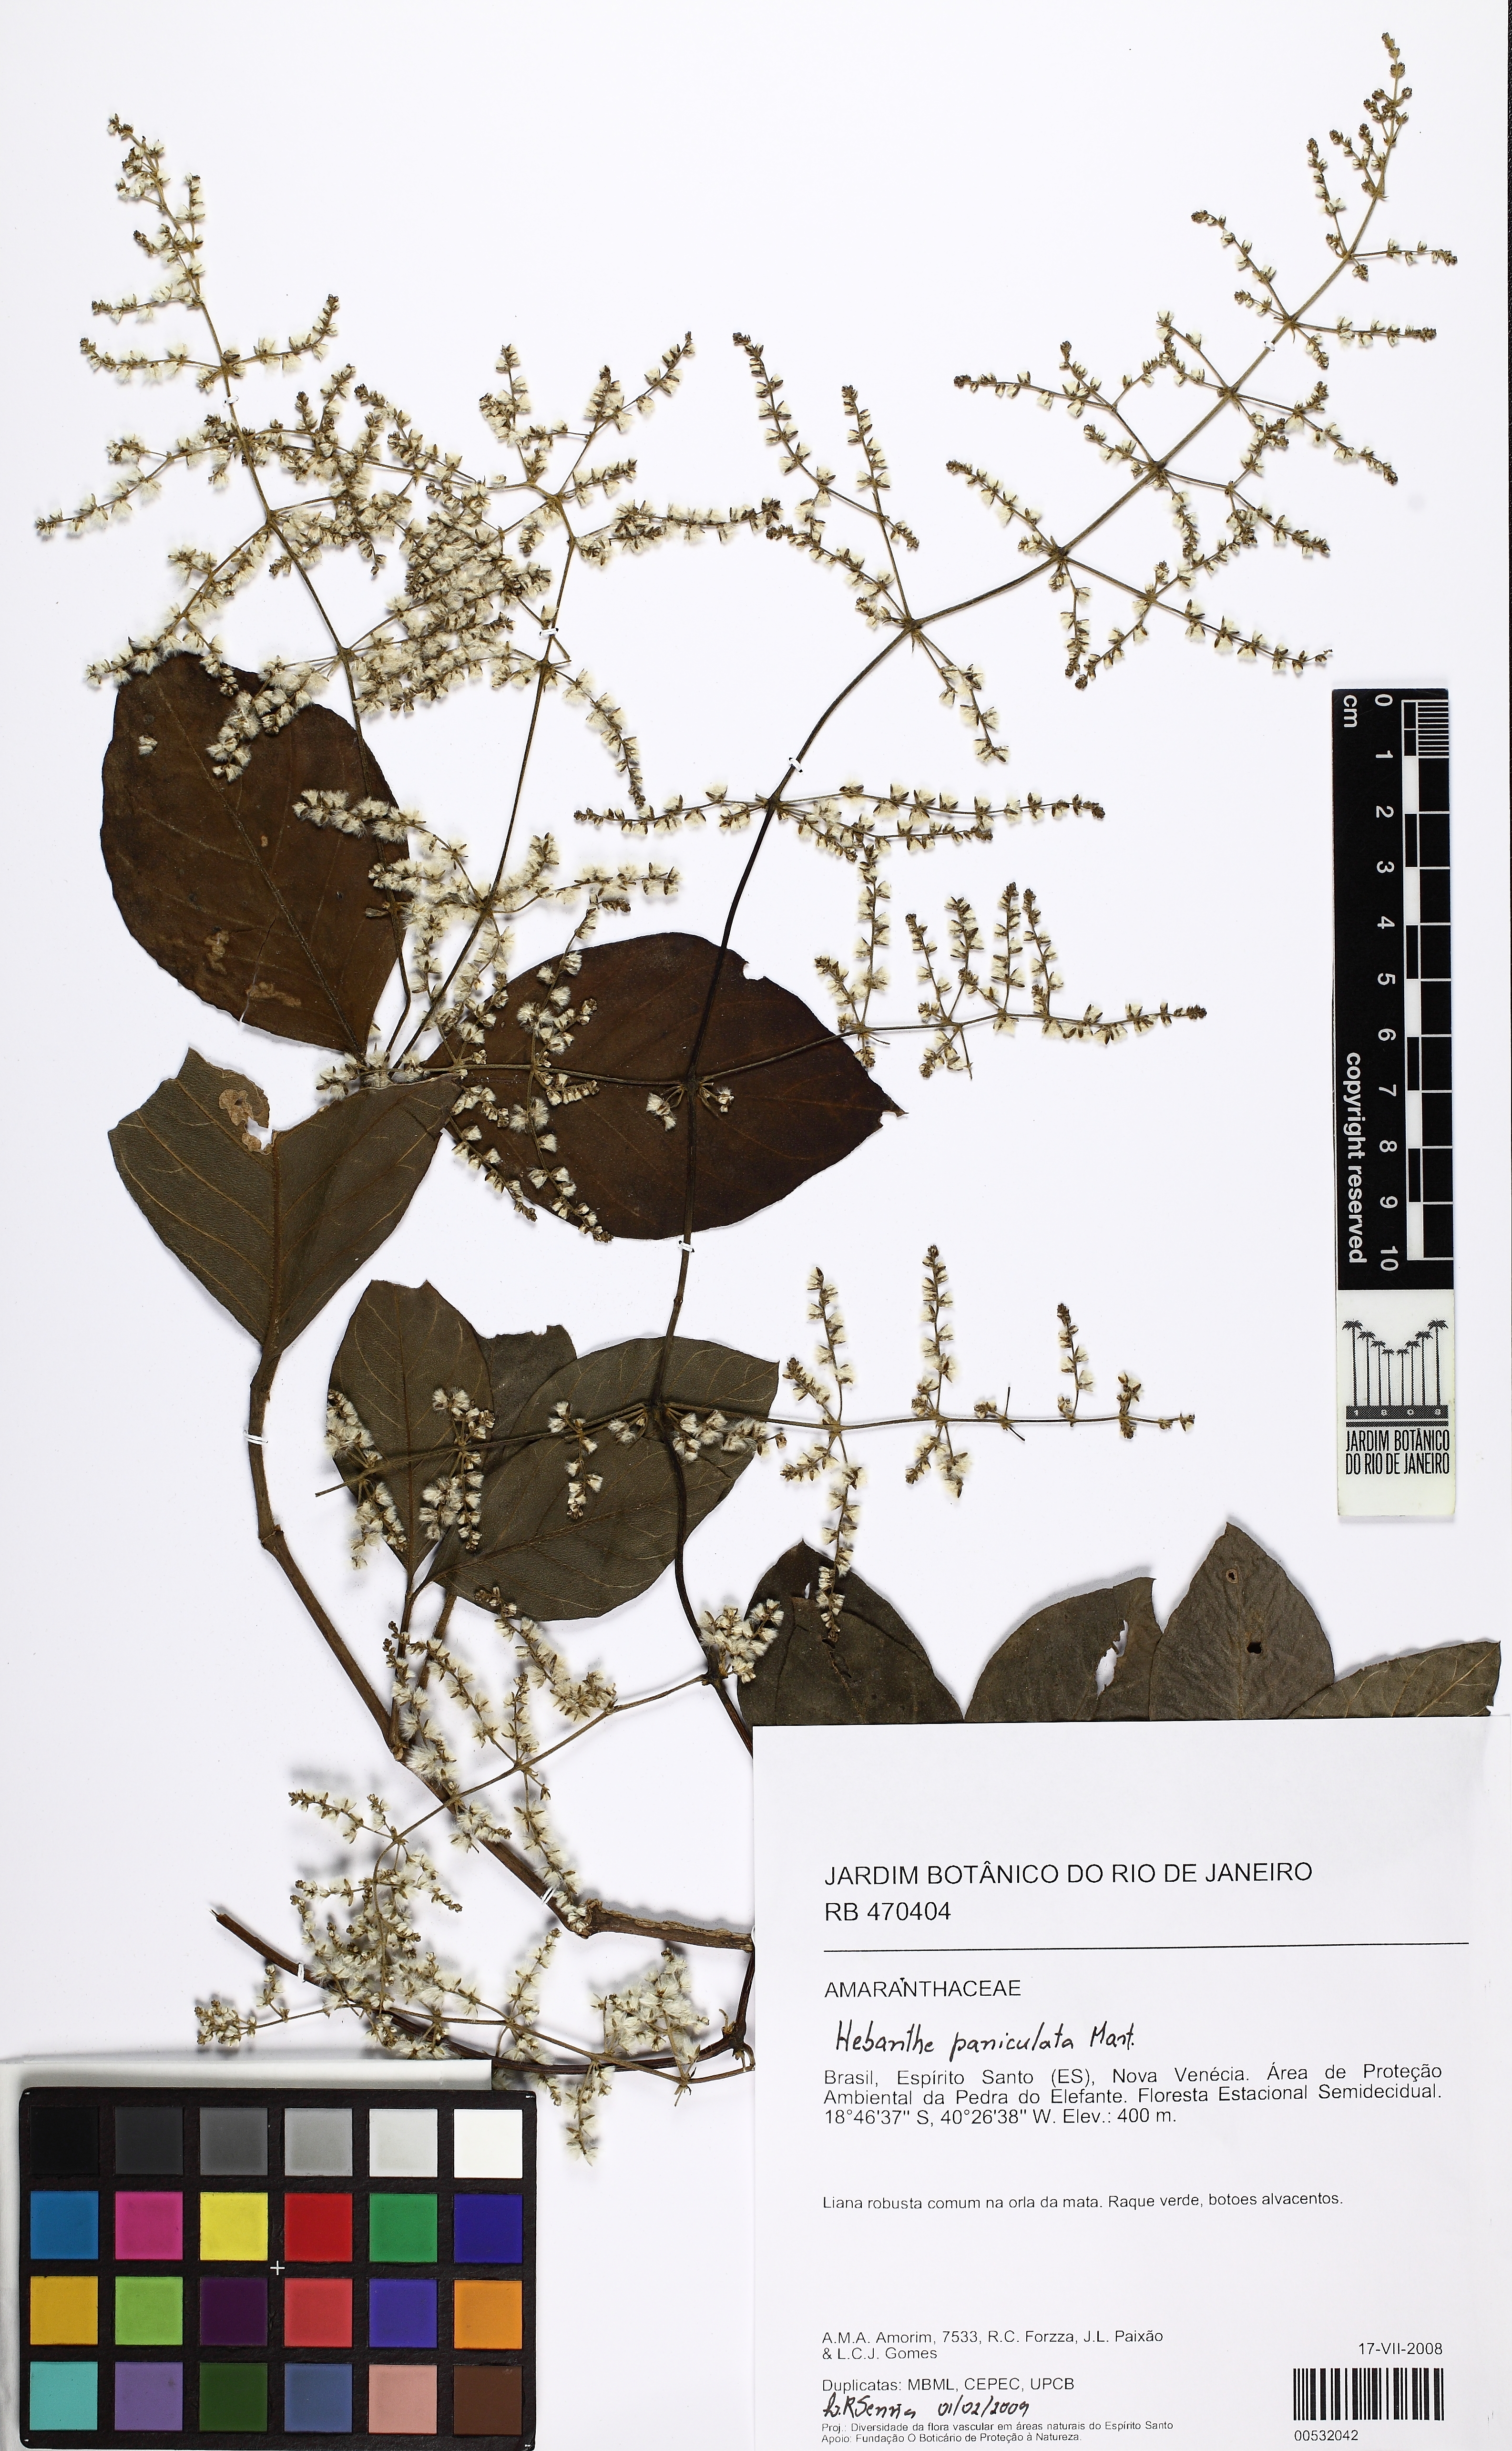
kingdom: Plantae
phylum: Tracheophyta
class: Magnoliopsida
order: Caryophyllales
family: Amaranthaceae
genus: Hebanthe
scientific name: Hebanthe erianthos
